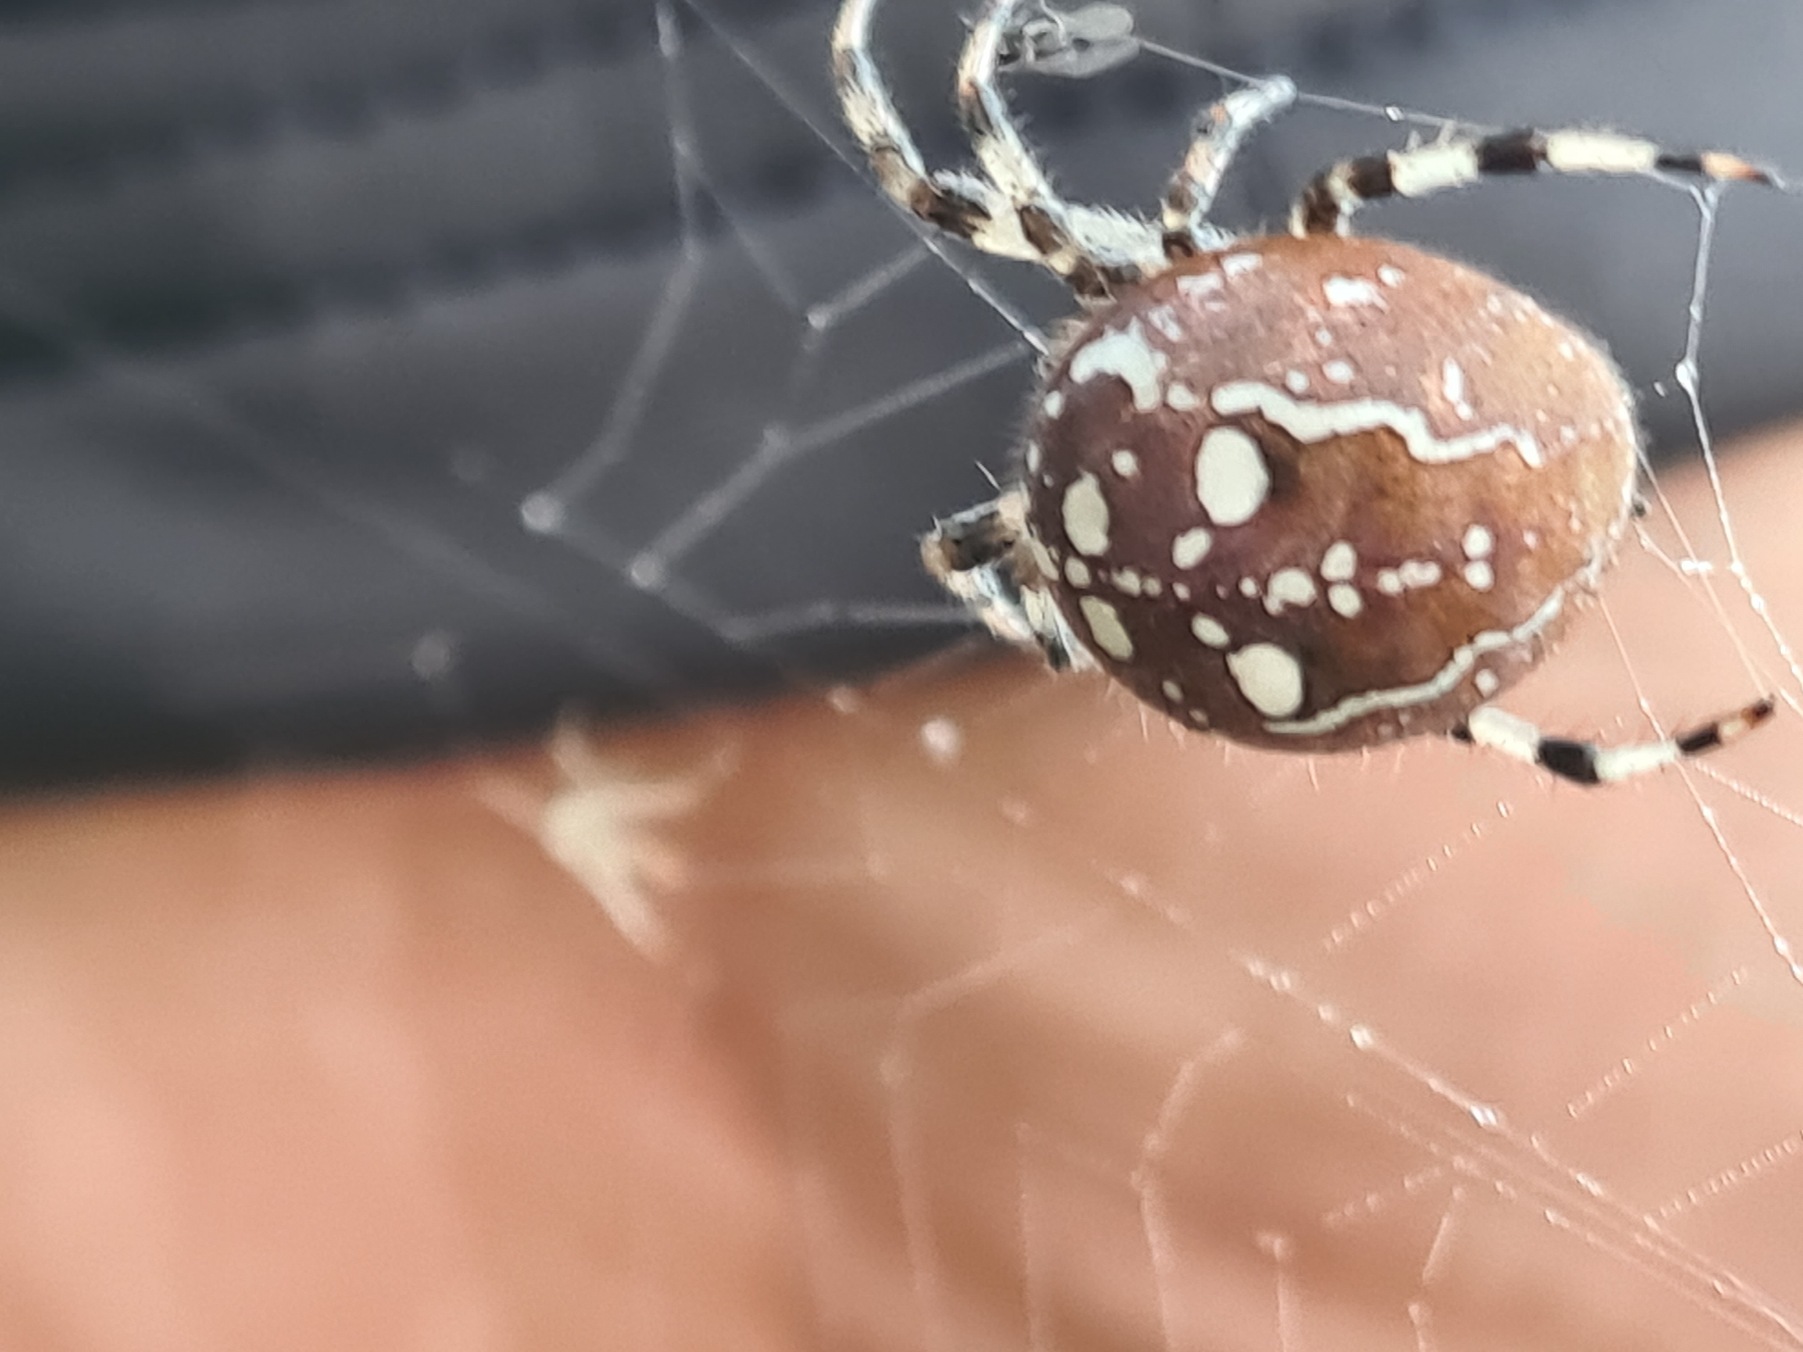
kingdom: Animalia
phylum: Arthropoda
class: Arachnida
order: Araneae
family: Araneidae
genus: Araneus
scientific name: Araneus quadratus
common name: Kvadratedderkop
